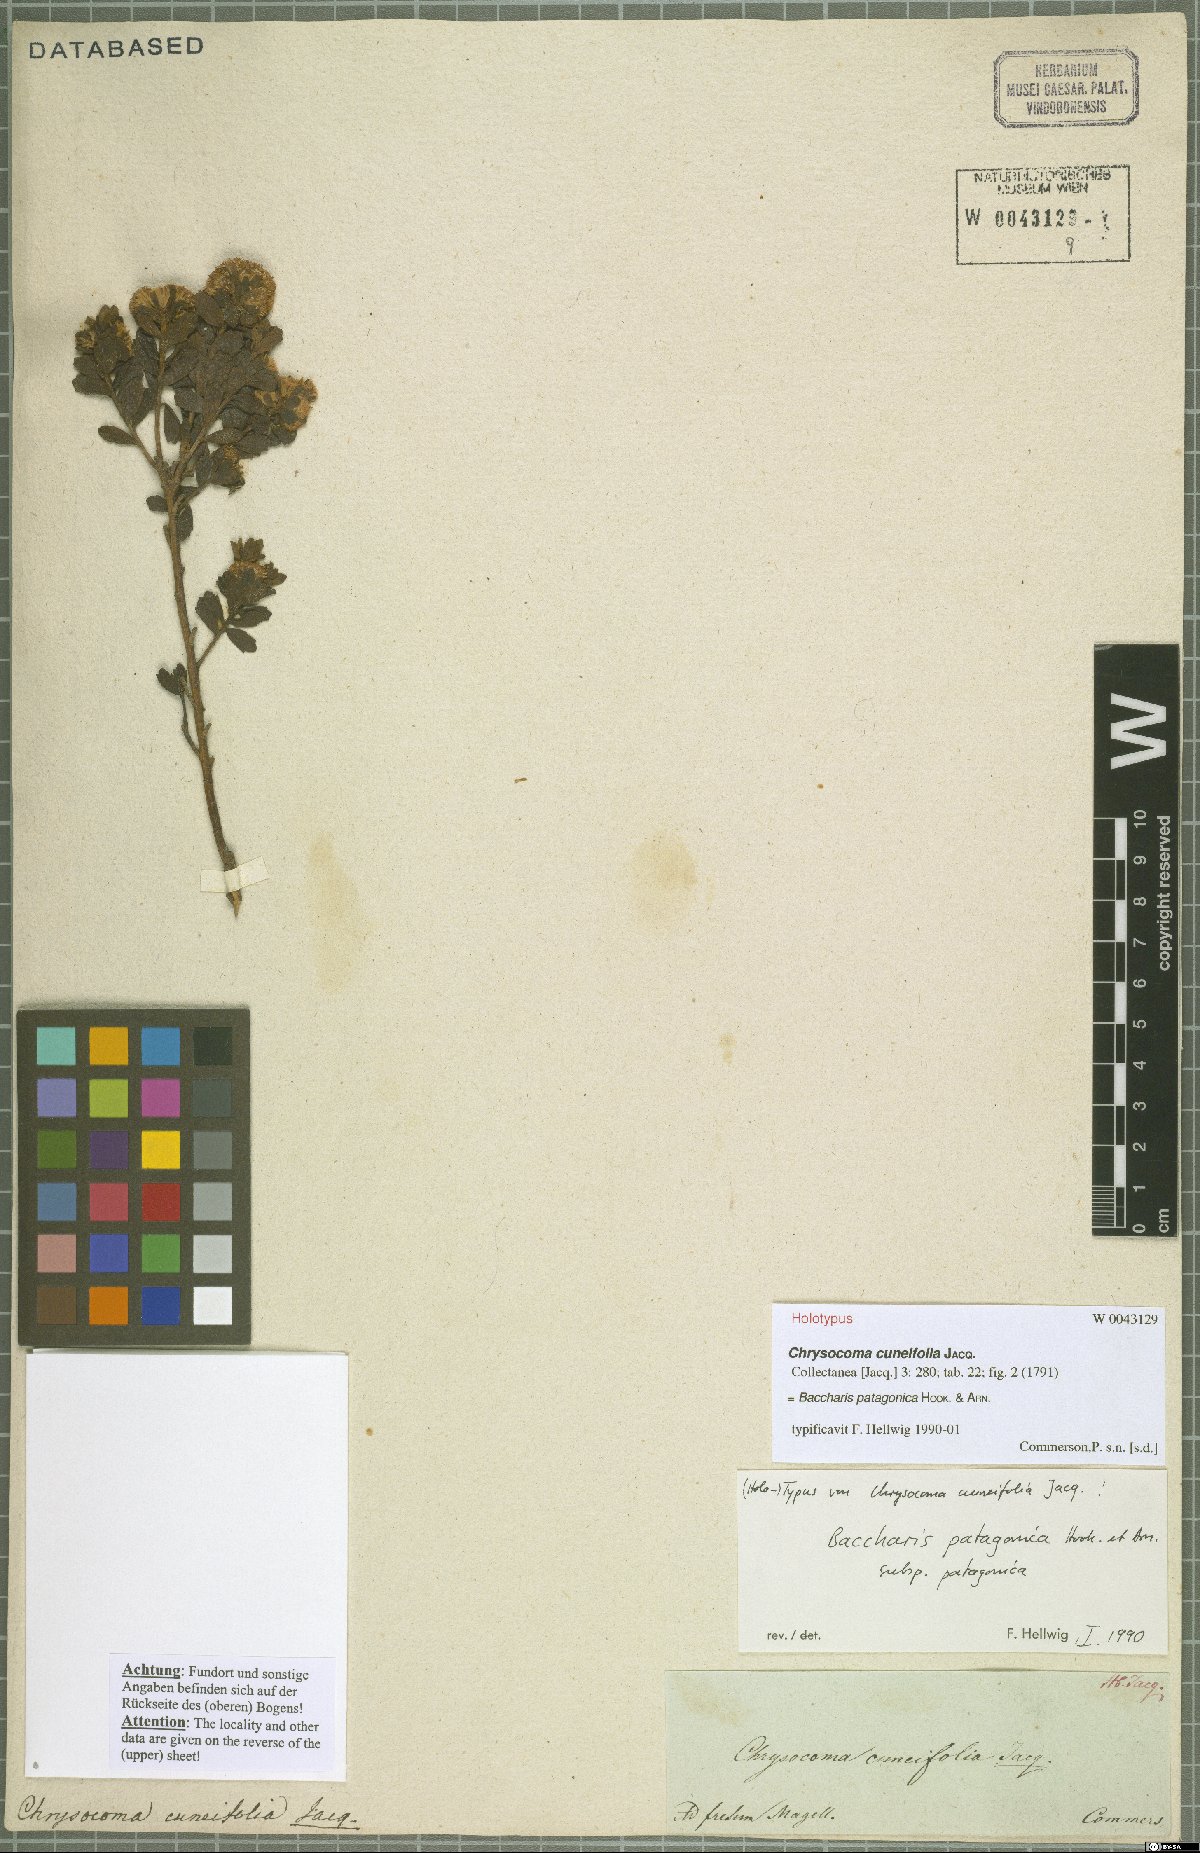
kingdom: Plantae
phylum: Tracheophyta
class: Magnoliopsida
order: Asterales
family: Asteraceae
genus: Baccharis
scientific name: Baccharis patagonica
